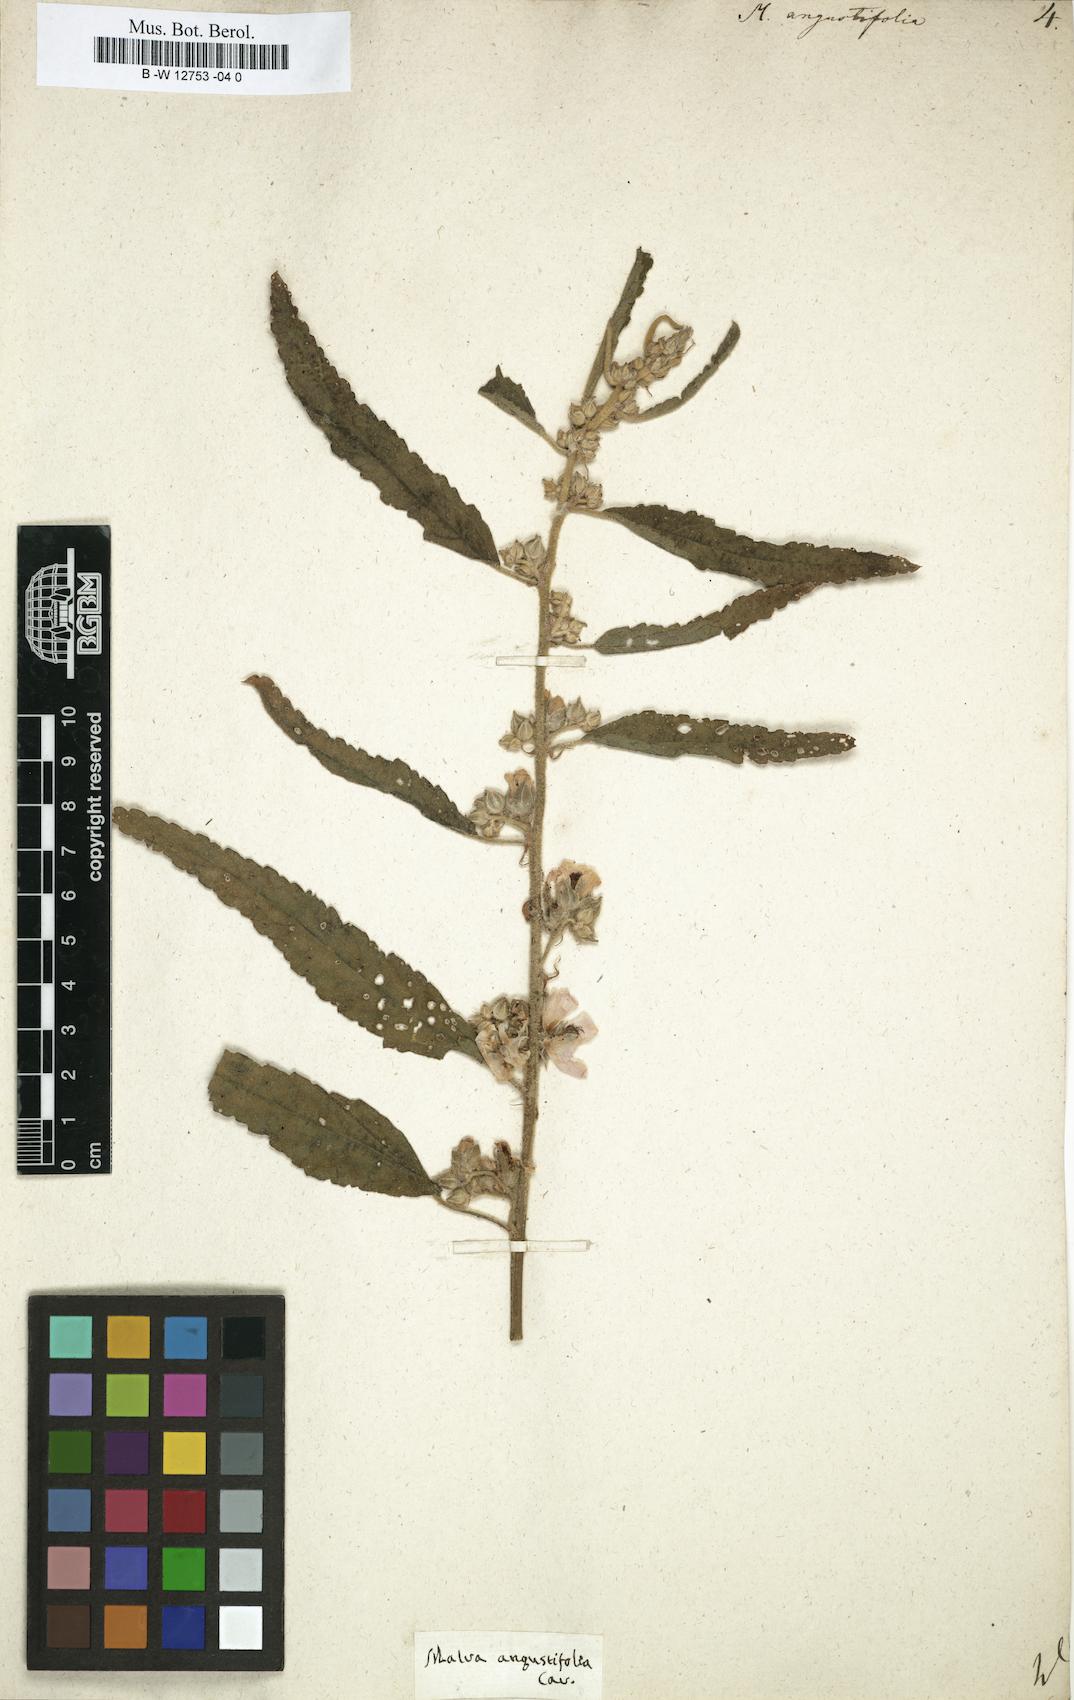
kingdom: Plantae
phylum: Tracheophyta
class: Magnoliopsida
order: Malvales
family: Malvaceae
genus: Sphaeralcea
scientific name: Sphaeralcea angustifolia
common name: Copper globe-mallow
